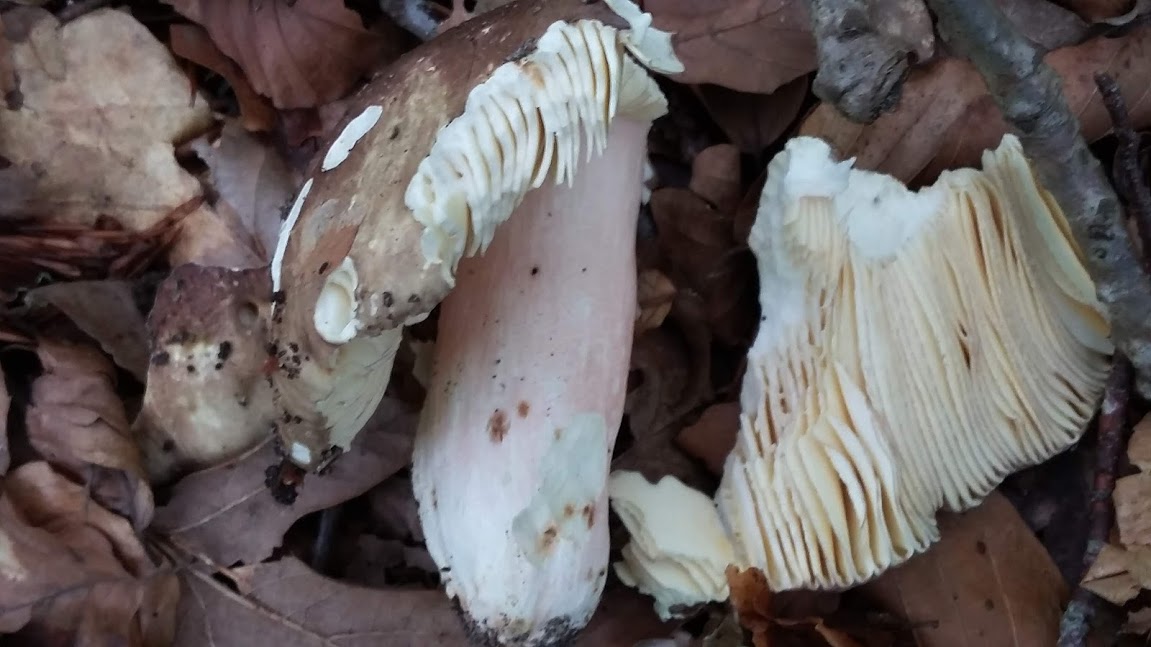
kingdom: Fungi
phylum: Basidiomycota
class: Agaricomycetes
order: Russulales
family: Russulaceae
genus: Russula
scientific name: Russula olivacea
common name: stor skørhat
